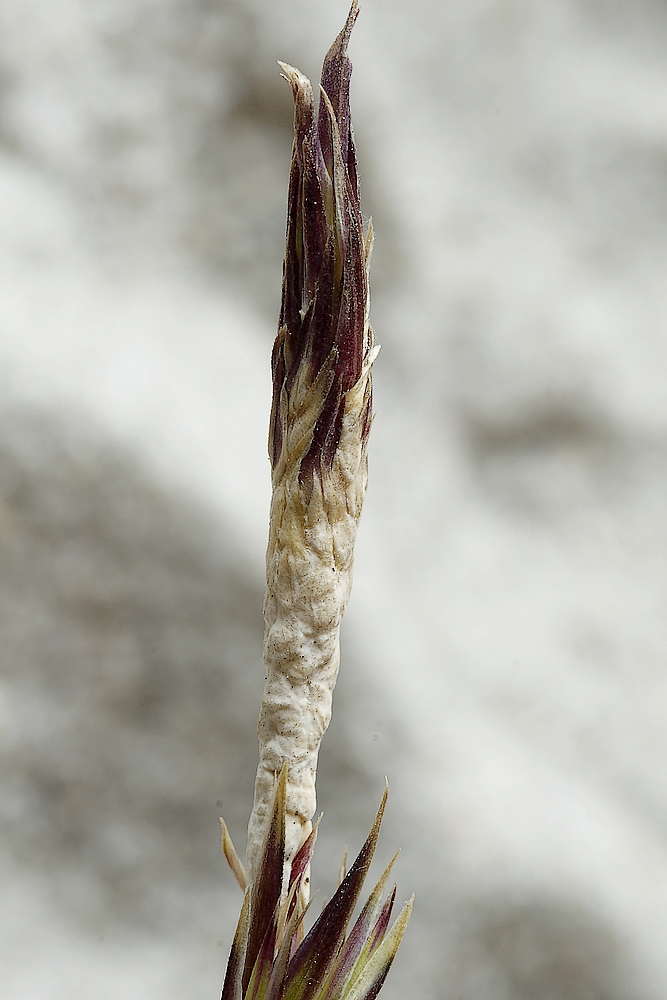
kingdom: Fungi
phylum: Ascomycota
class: Sordariomycetes
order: Hypocreales
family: Clavicipitaceae
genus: Epichloe
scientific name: Epichloe
